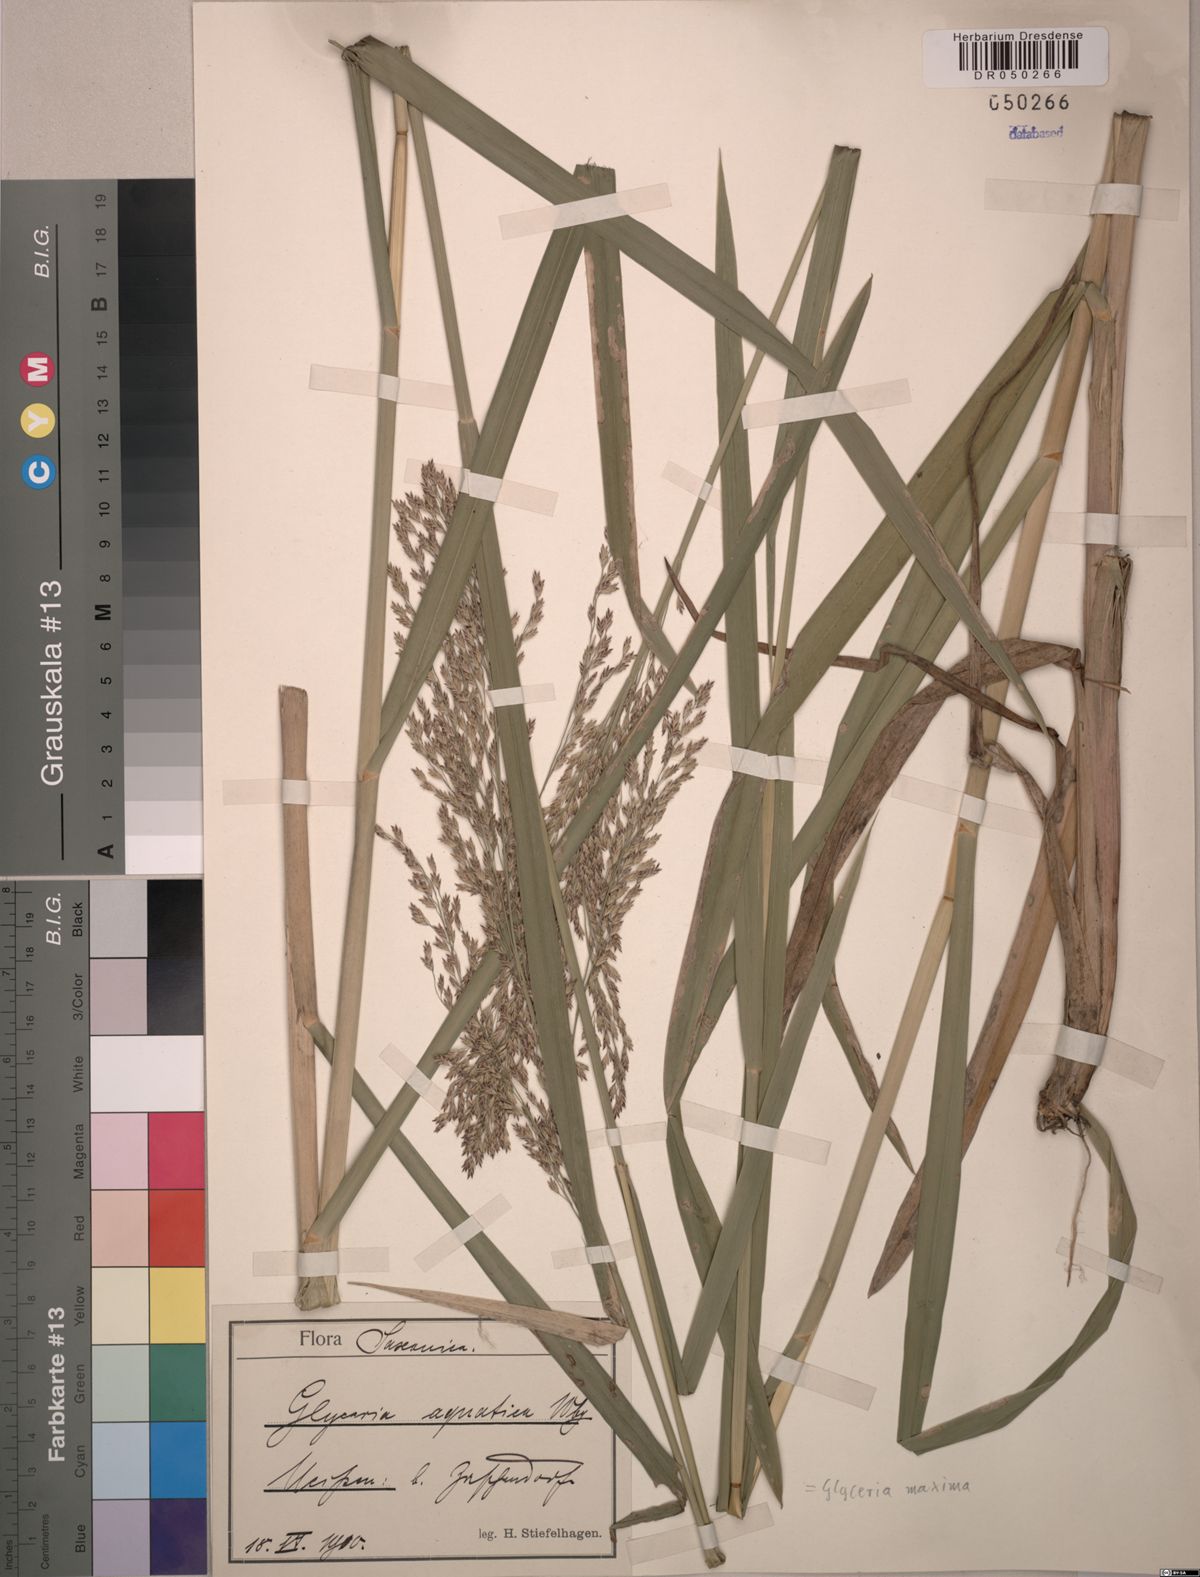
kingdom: Plantae
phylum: Tracheophyta
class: Liliopsida
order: Poales
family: Poaceae
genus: Glyceria
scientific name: Glyceria maxima
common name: Reed mannagrass
